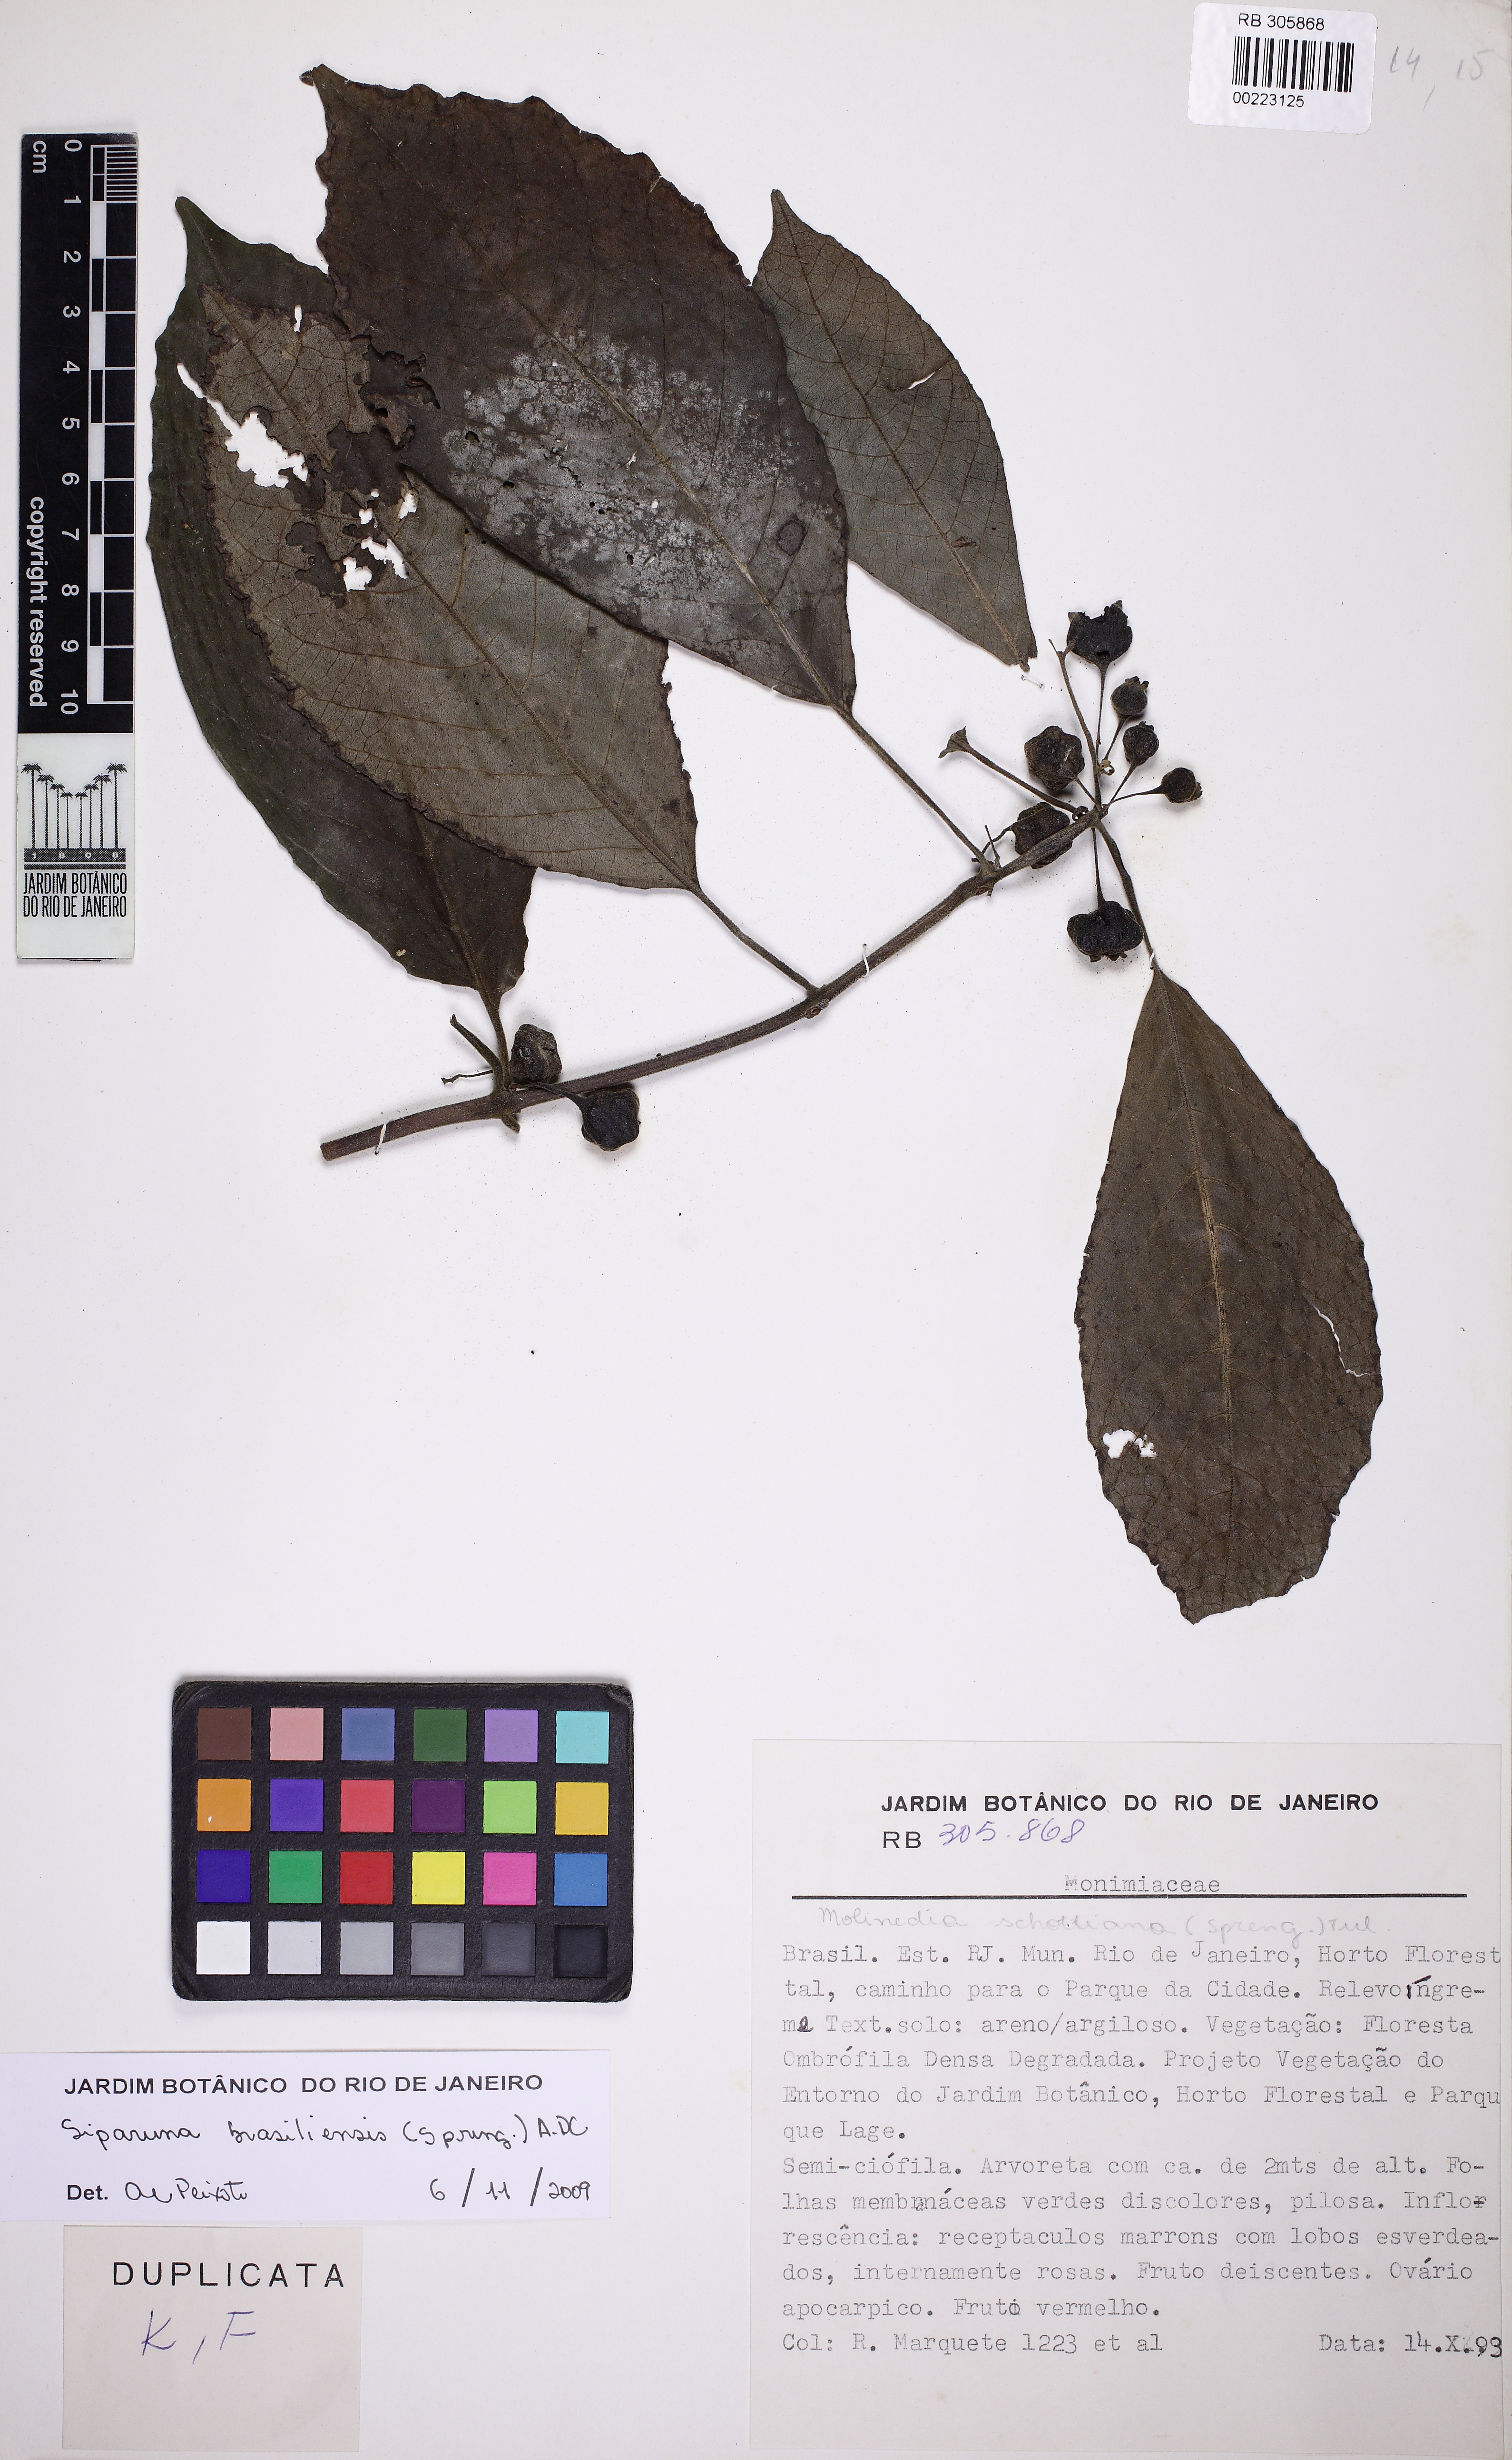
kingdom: Plantae
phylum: Tracheophyta
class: Magnoliopsida
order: Laurales
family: Siparunaceae
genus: Siparuna
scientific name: Siparuna brasiliensis
